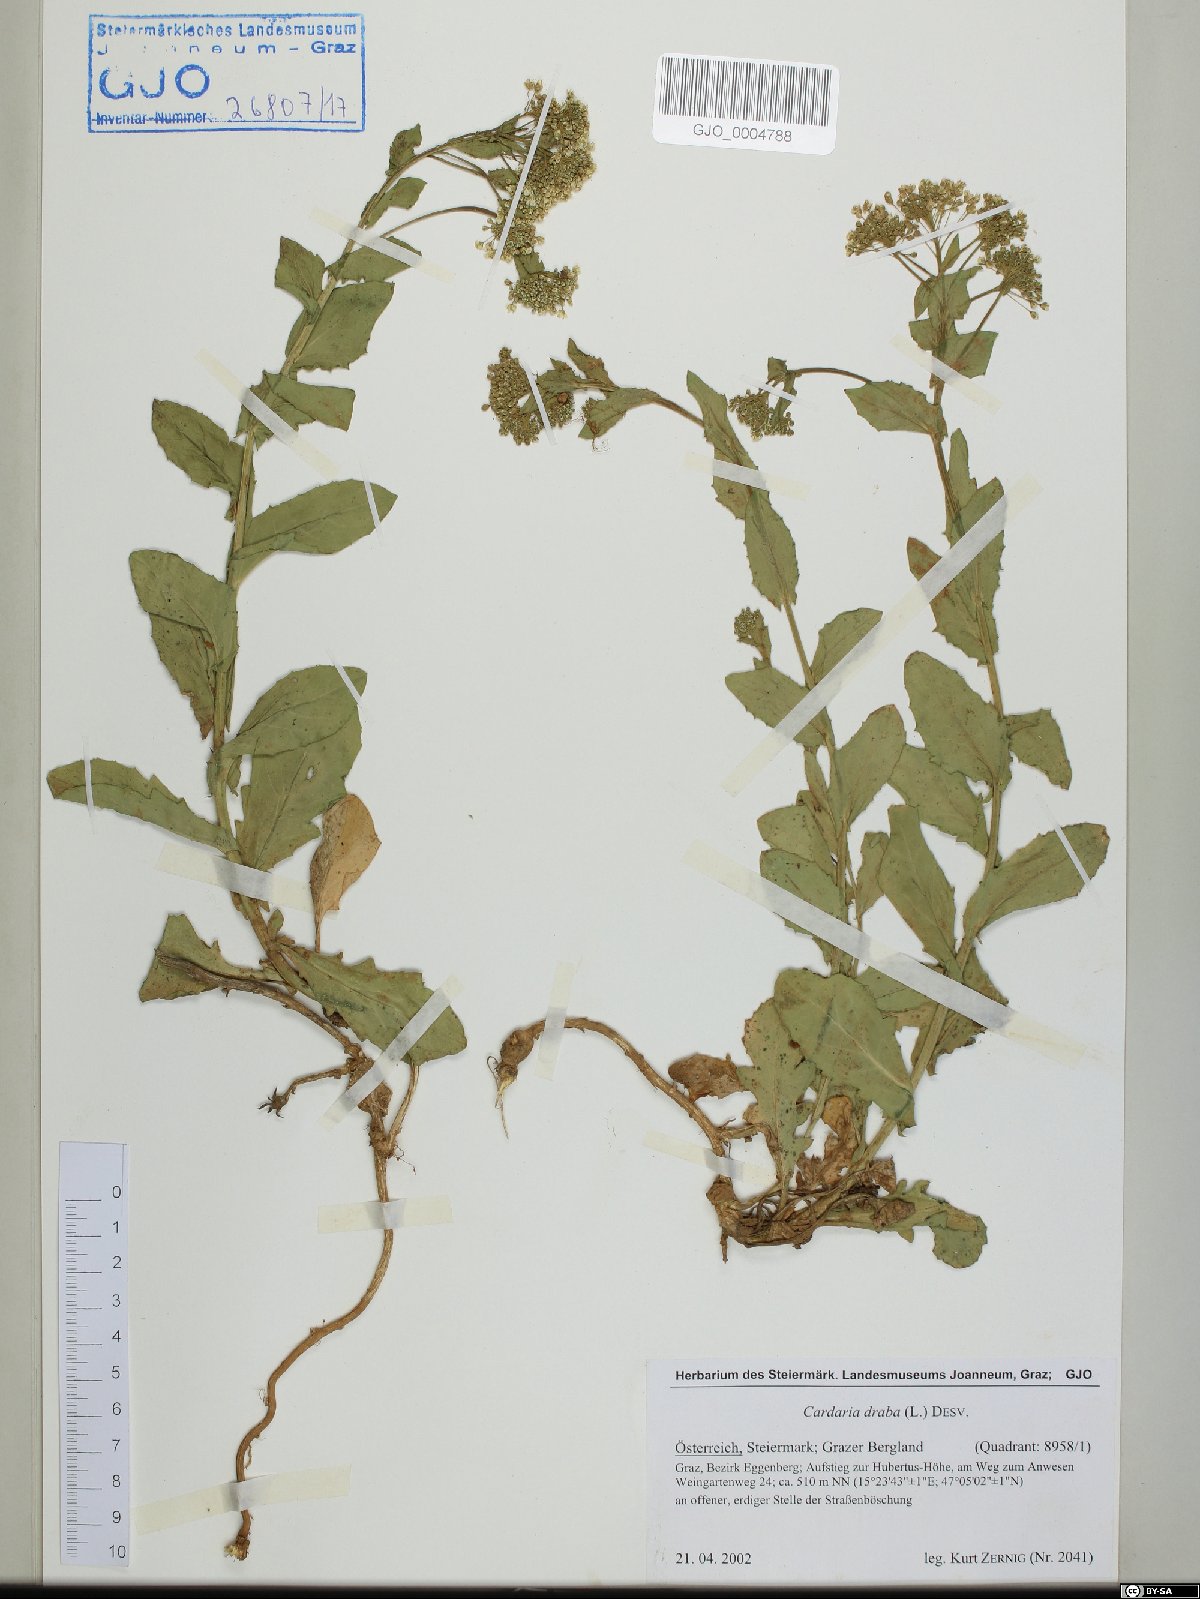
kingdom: Plantae
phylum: Tracheophyta
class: Magnoliopsida
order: Brassicales
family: Brassicaceae
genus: Lepidium
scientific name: Lepidium draba
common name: Hoary cress
